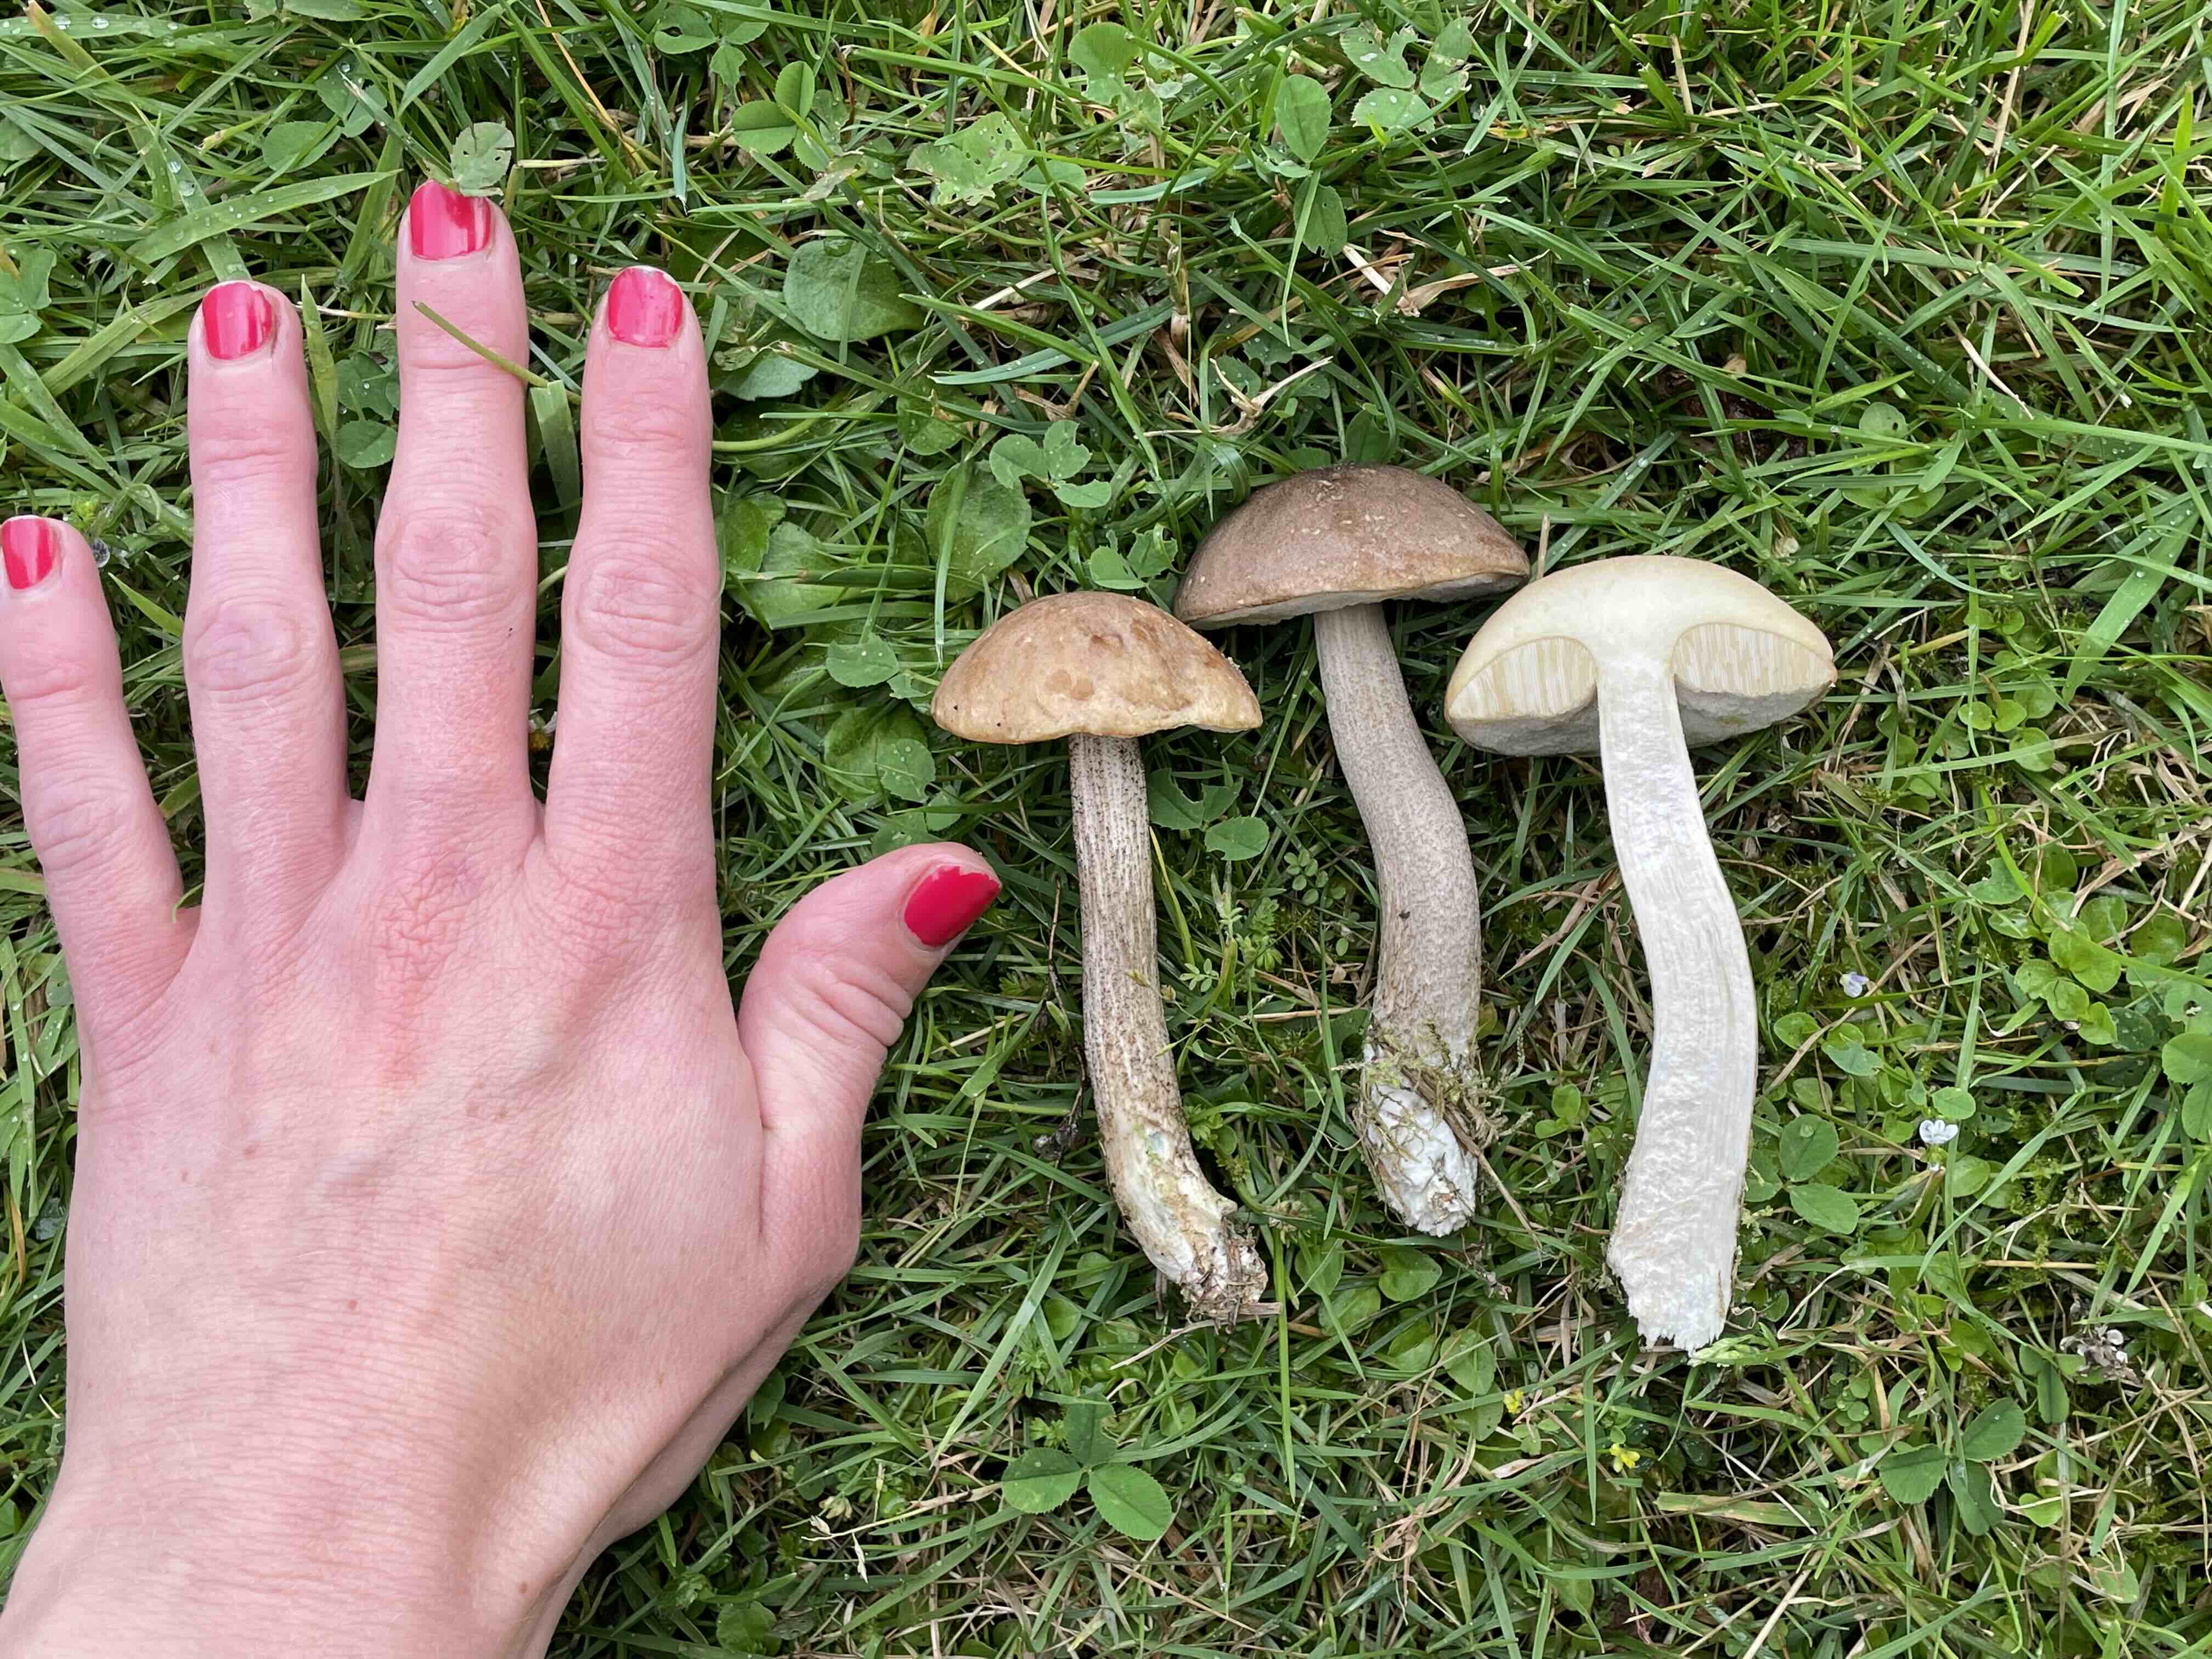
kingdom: Fungi
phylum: Basidiomycota
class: Agaricomycetes
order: Boletales
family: Boletaceae
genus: Leccinum
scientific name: Leccinum cyaneobasileucum
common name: almindelig skælrørhat
